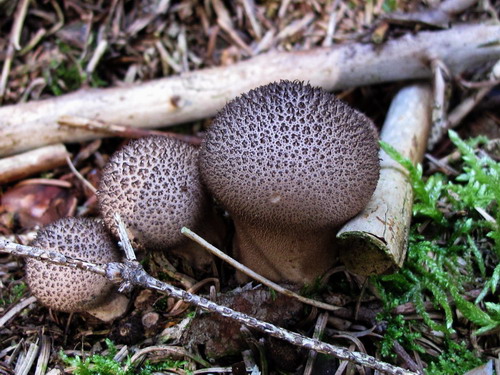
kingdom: Fungi
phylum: Basidiomycota
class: Agaricomycetes
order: Agaricales
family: Lycoperdaceae
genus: Lycoperdon
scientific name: Lycoperdon nigrescens
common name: sortagtig støvbold
